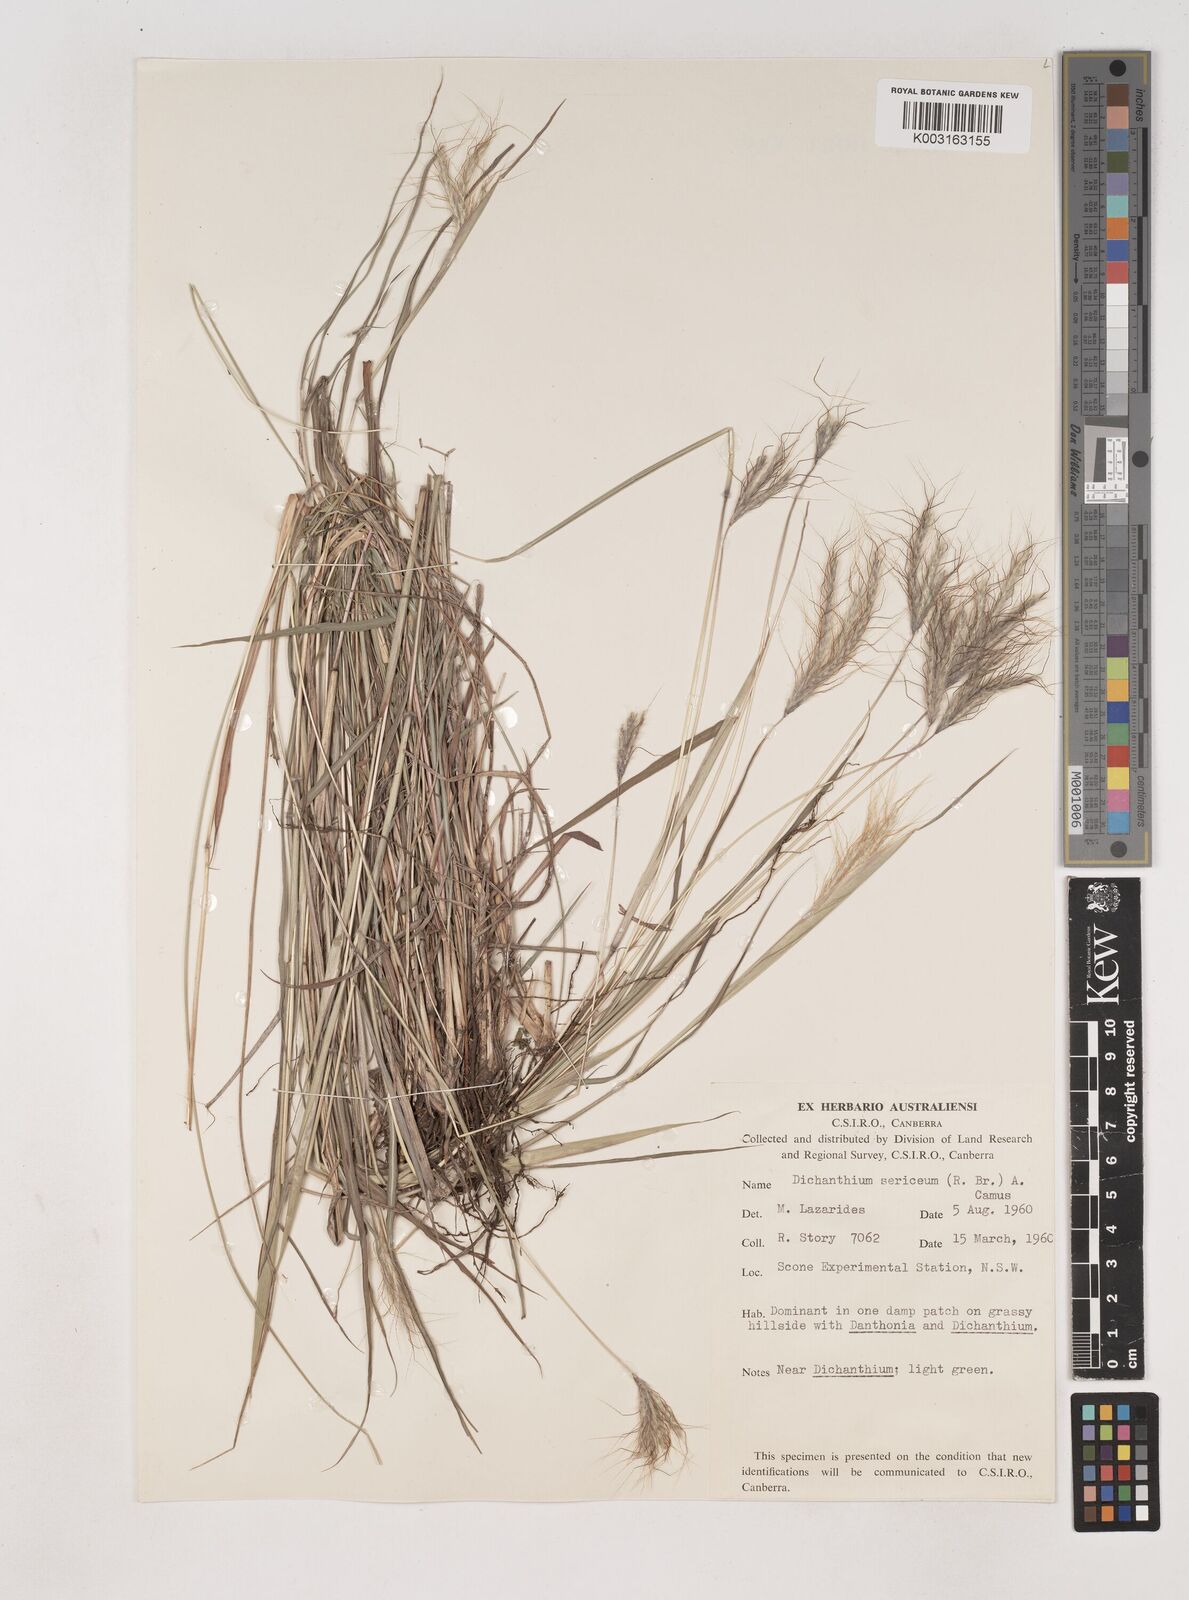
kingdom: Plantae
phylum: Tracheophyta
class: Liliopsida
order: Poales
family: Poaceae
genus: Dichanthium
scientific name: Dichanthium sericeum
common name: Silky bluestem
